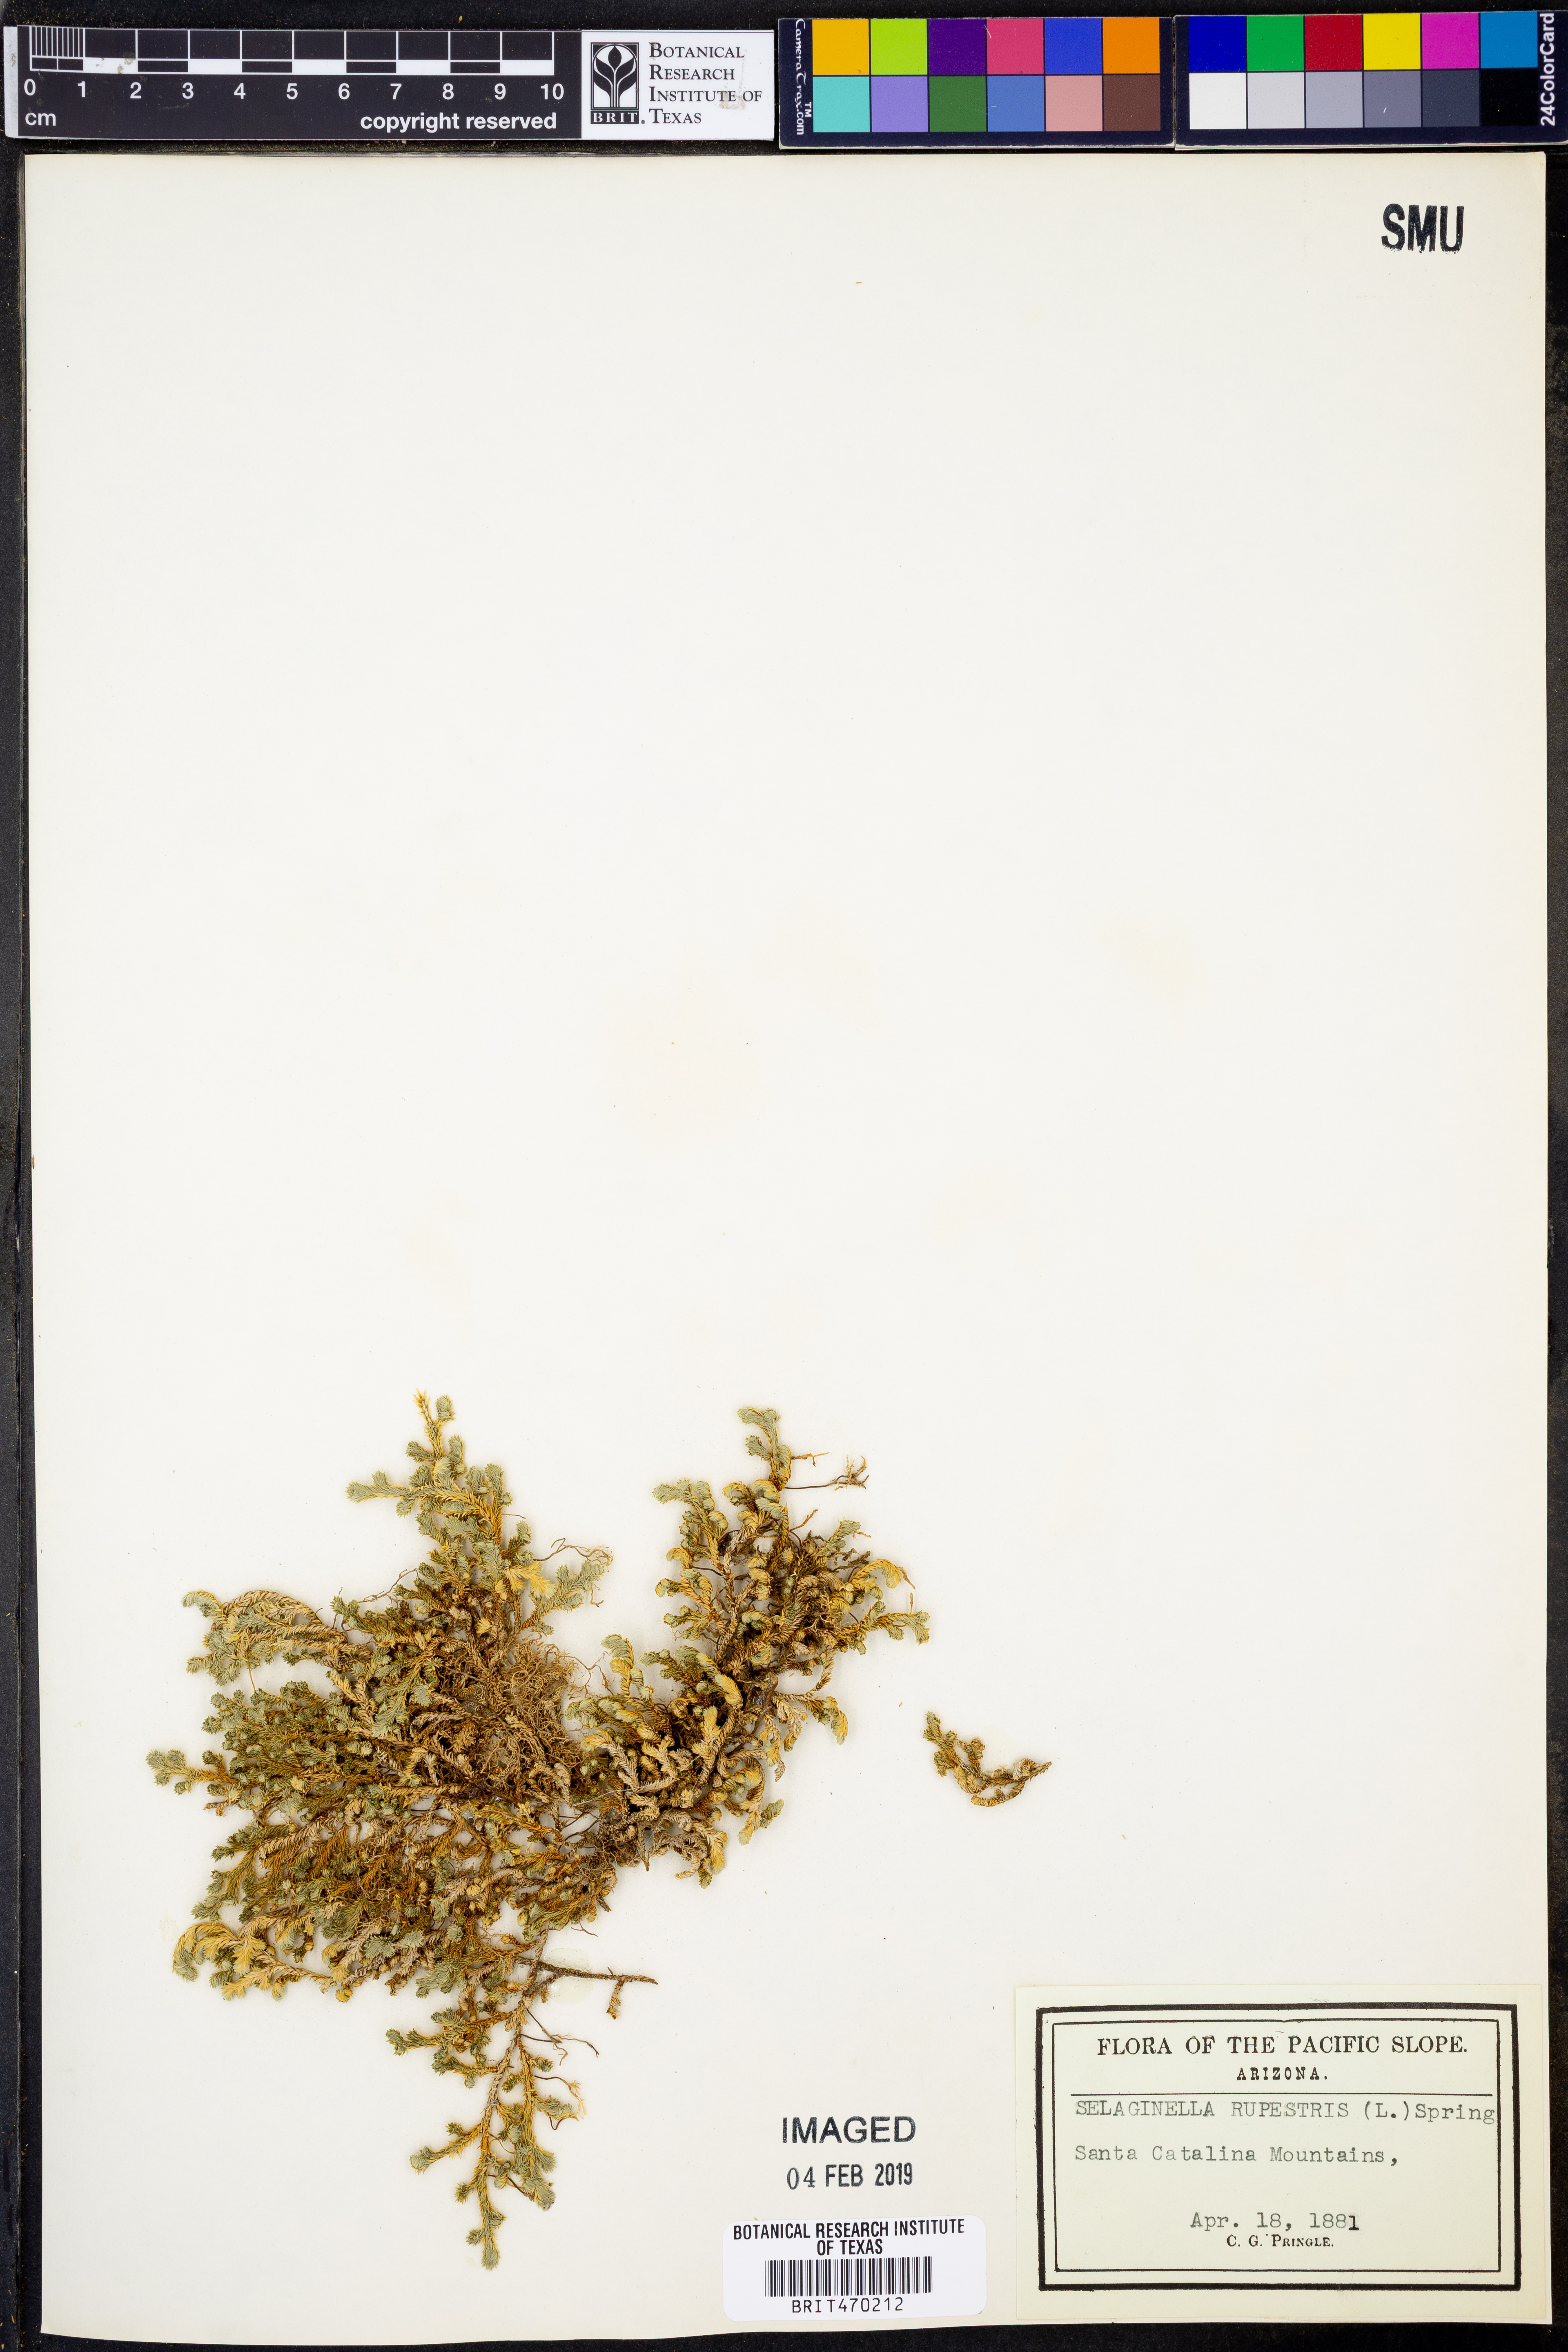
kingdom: Plantae
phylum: Tracheophyta
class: Lycopodiopsida
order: Selaginellales
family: Selaginellaceae
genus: Selaginella
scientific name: Selaginella rupestris
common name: Dwarf spikemoss
